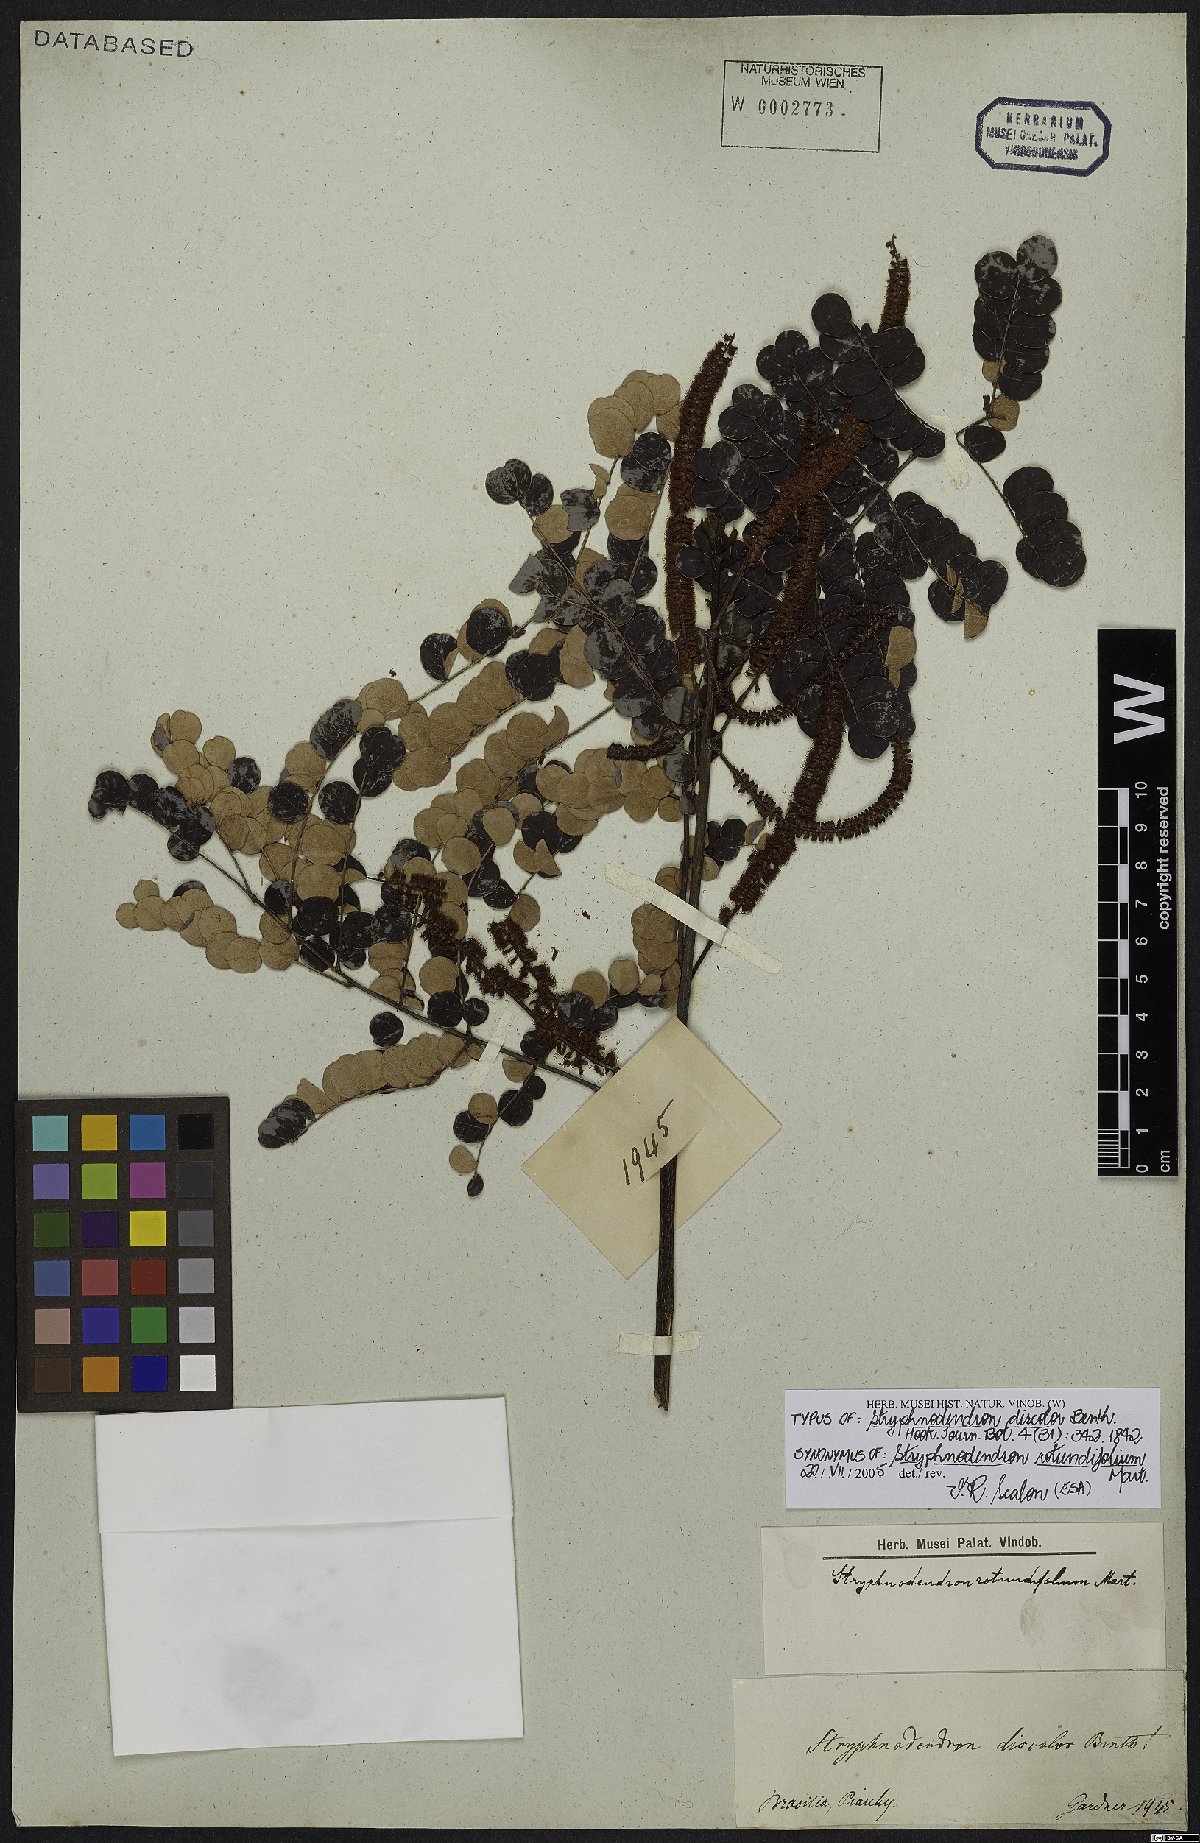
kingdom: Plantae
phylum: Tracheophyta
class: Magnoliopsida
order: Fabales
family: Fabaceae
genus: Stryphnodendron
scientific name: Stryphnodendron rotundifolium
